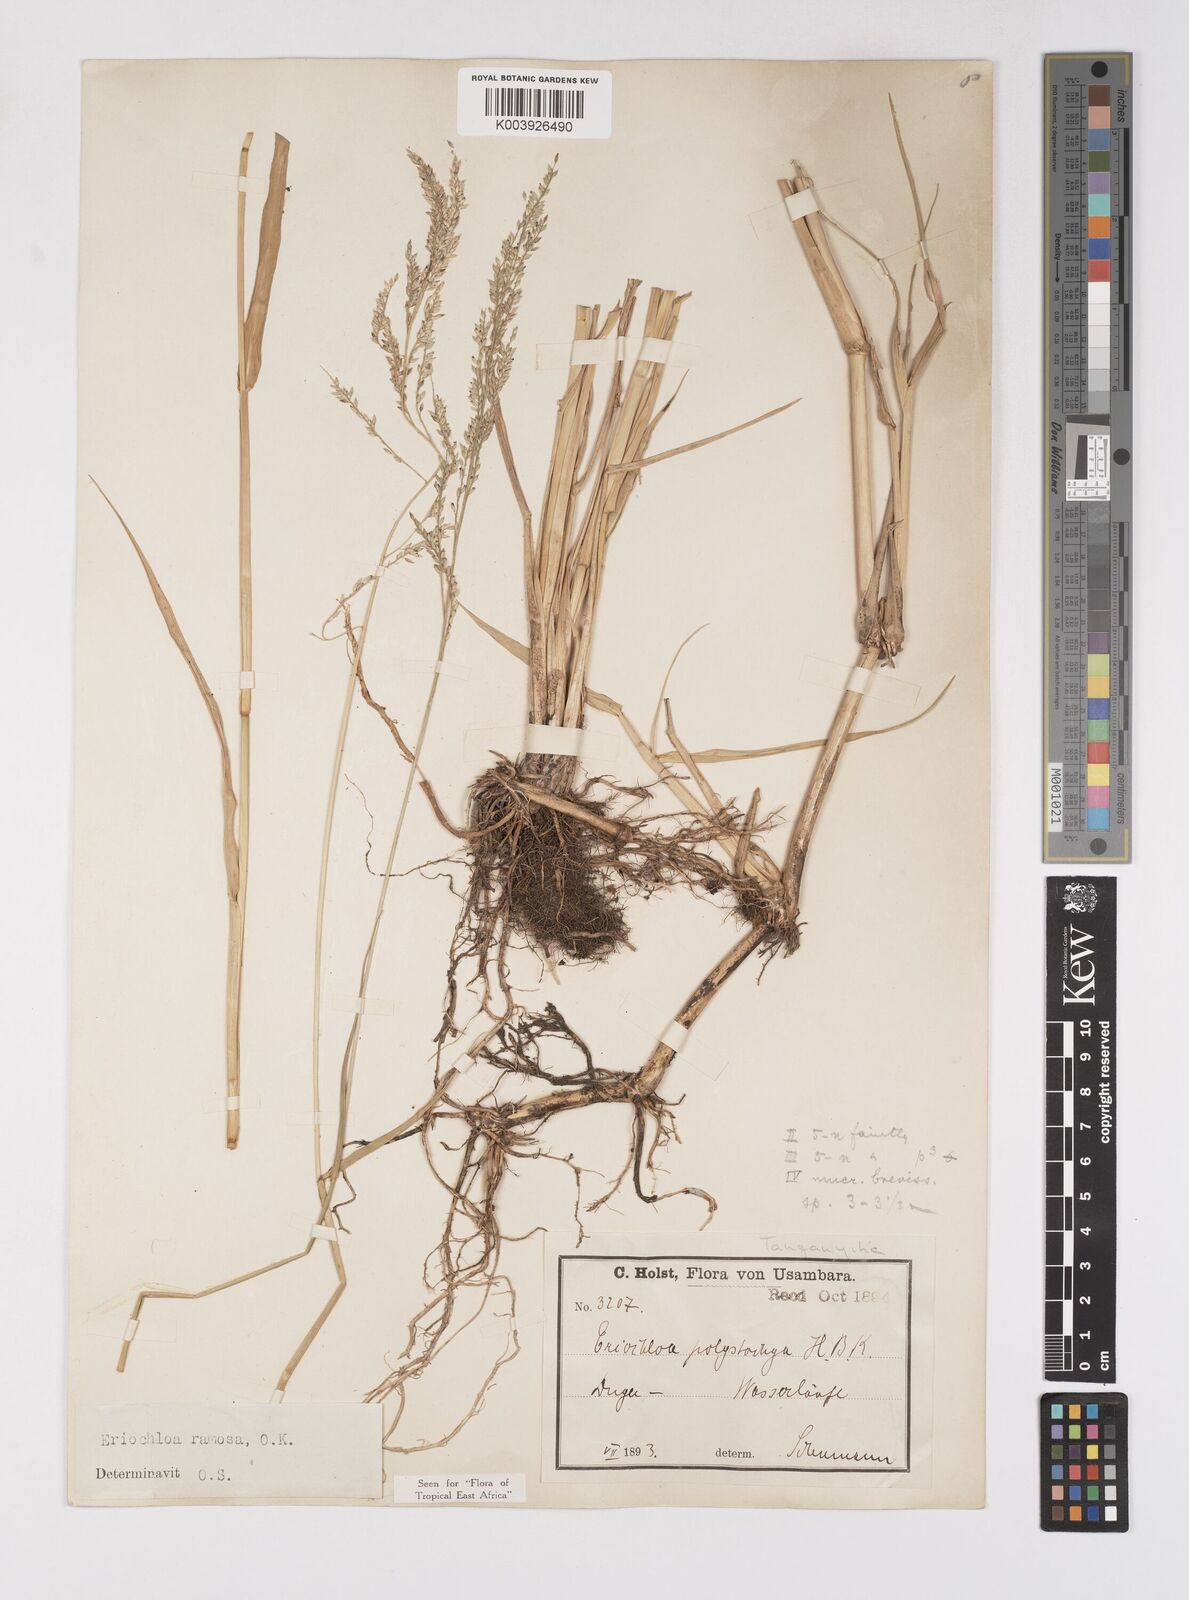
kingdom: Plantae
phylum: Tracheophyta
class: Liliopsida
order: Poales
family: Poaceae
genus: Eriochloa
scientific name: Eriochloa procera
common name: Spring grass
